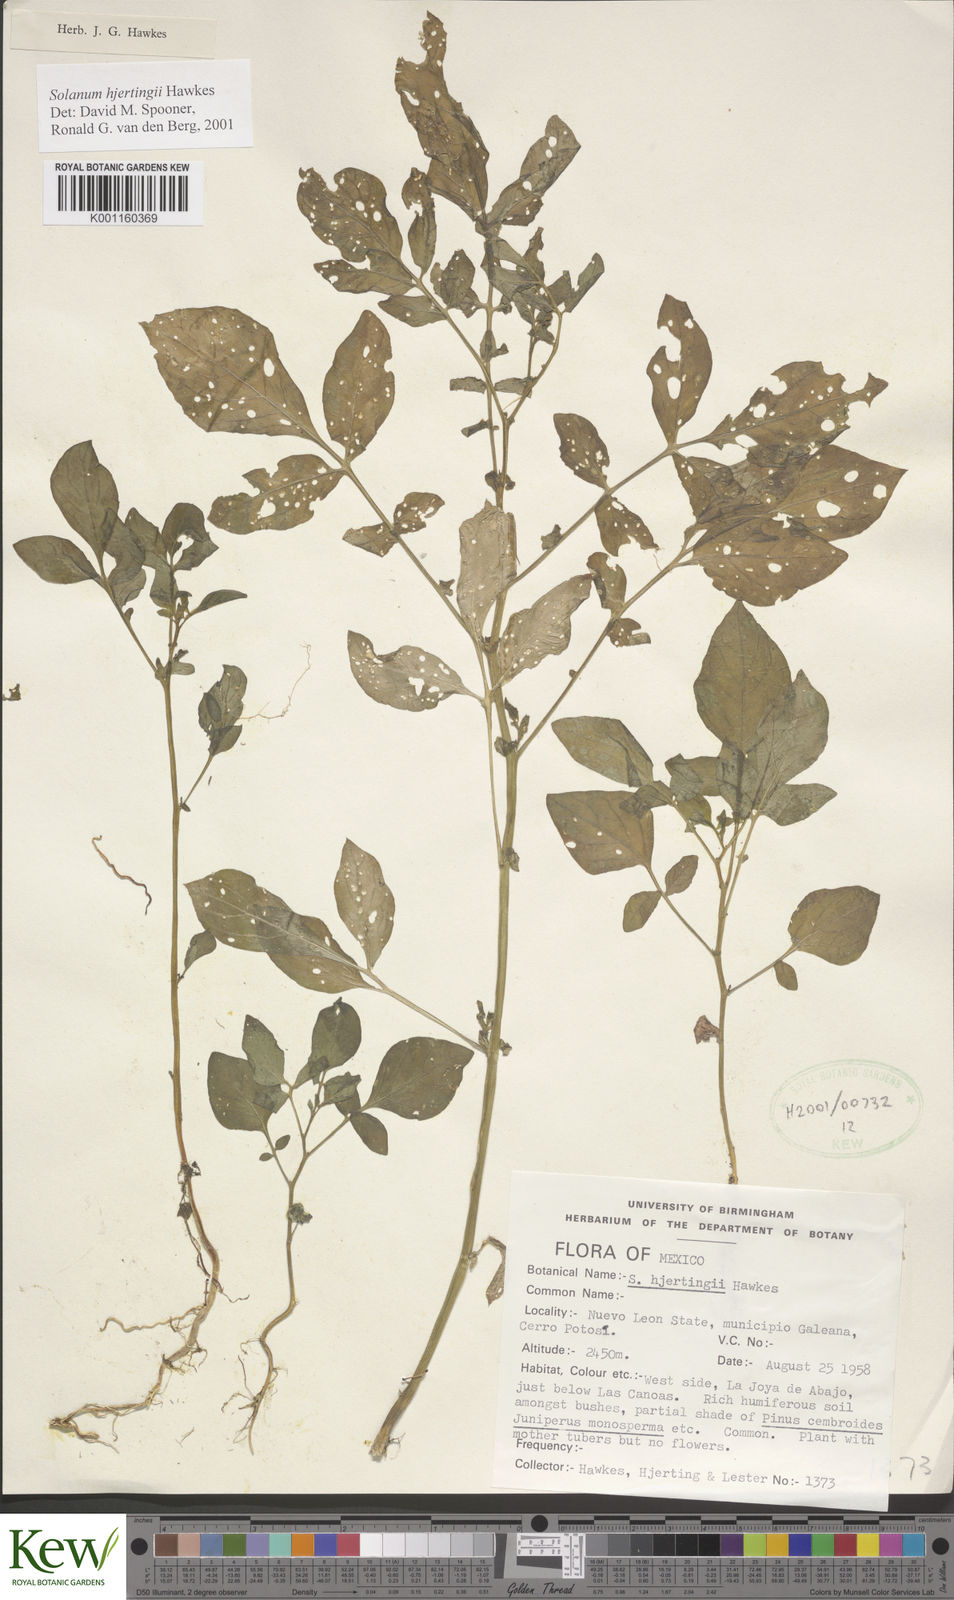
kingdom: Plantae
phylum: Tracheophyta
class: Magnoliopsida
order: Solanales
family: Solanaceae
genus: Solanum
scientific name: Solanum hjertingii
